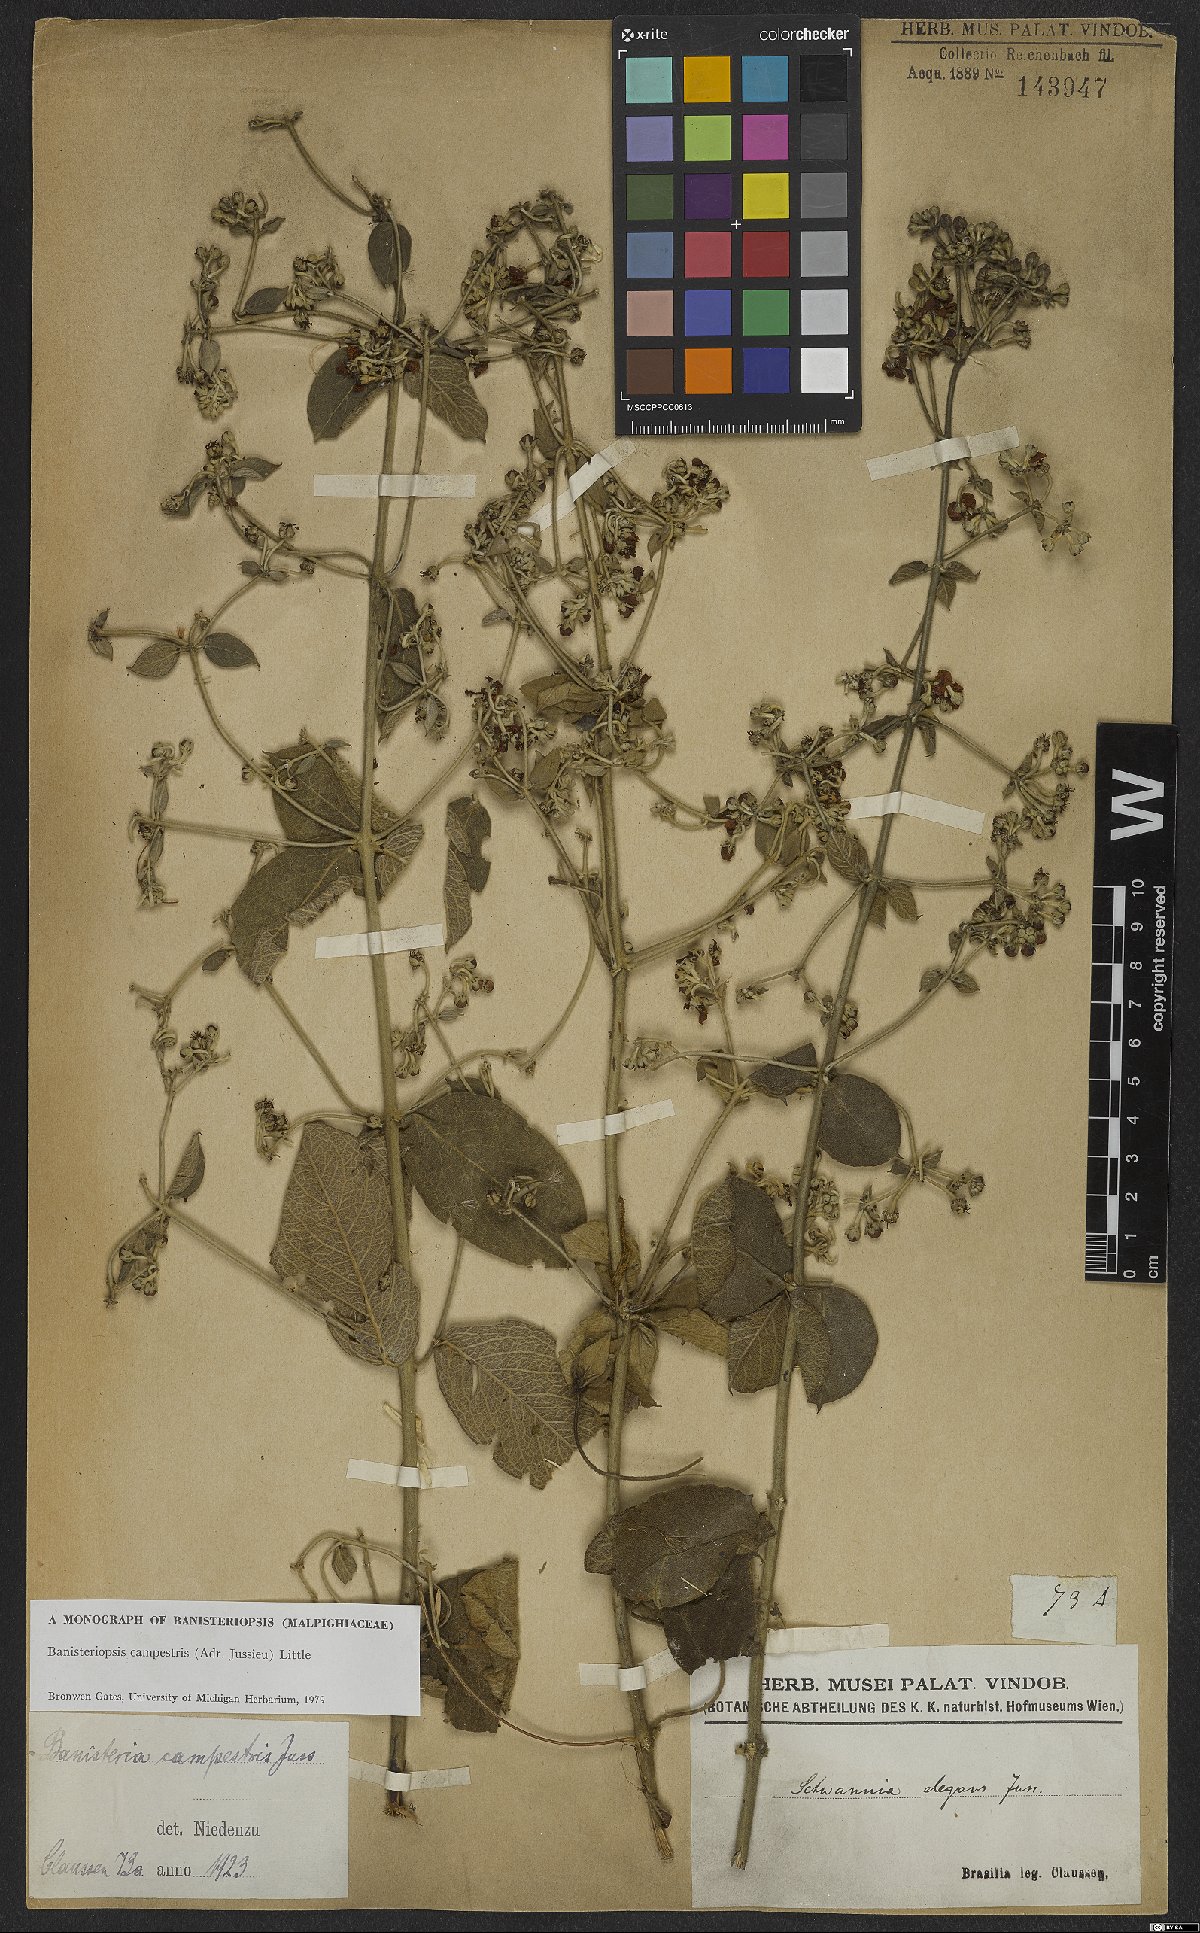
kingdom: Plantae
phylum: Tracheophyta
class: Magnoliopsida
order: Malpighiales
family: Malpighiaceae
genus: Banisteriopsis
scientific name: Banisteriopsis campestris
